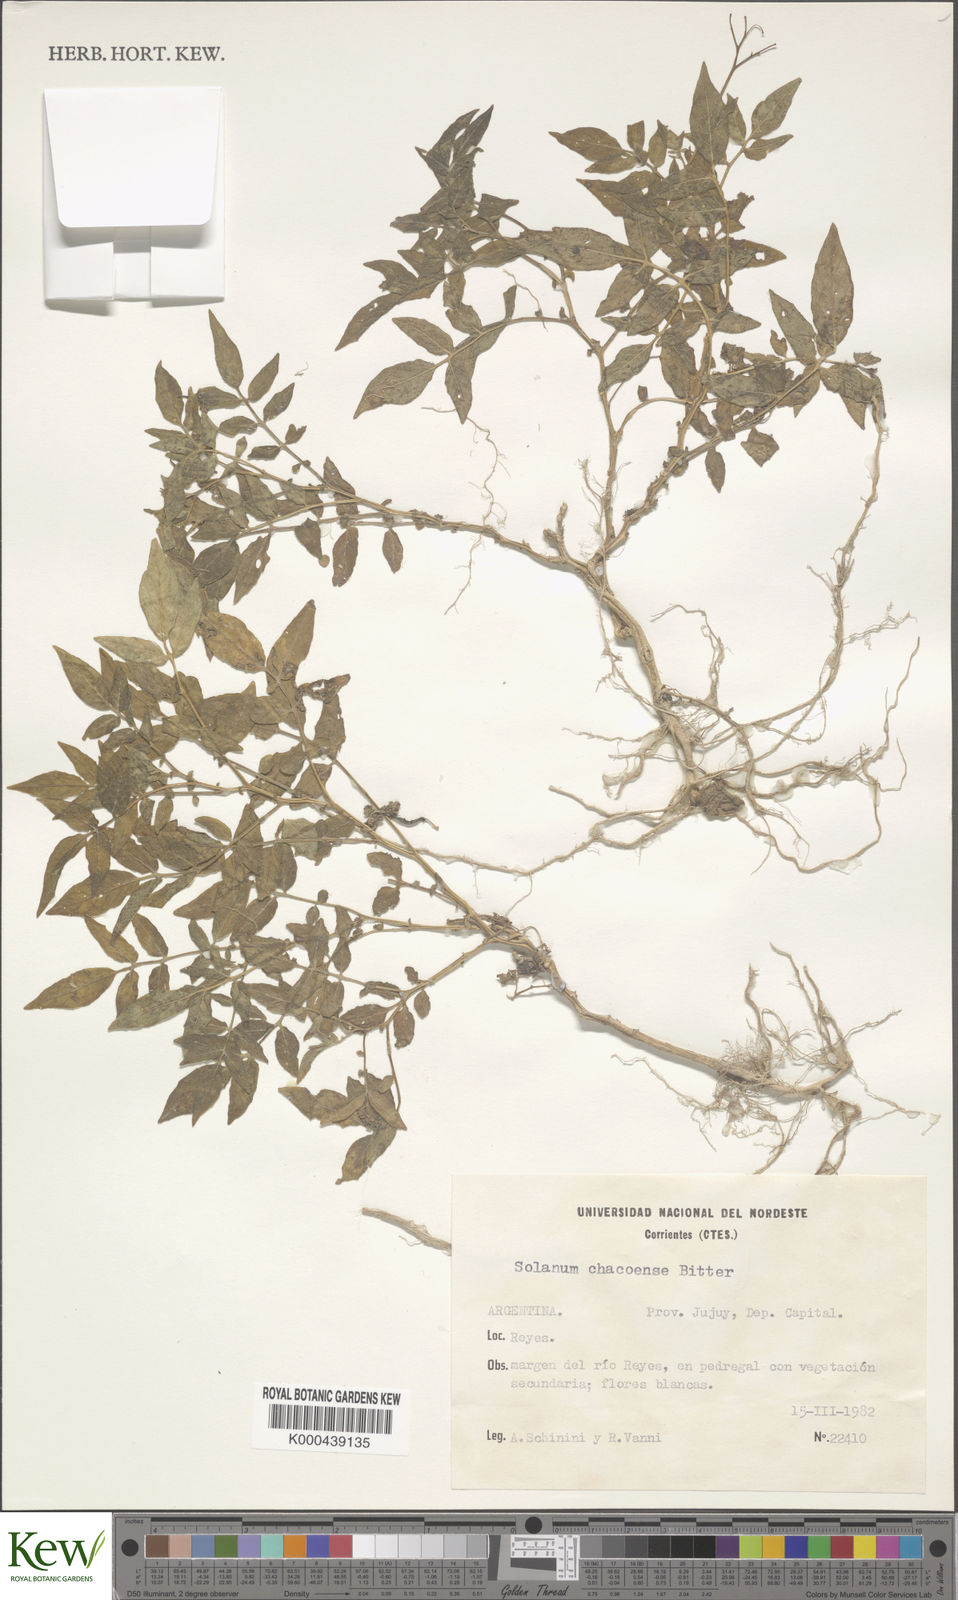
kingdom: Plantae
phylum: Tracheophyta
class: Magnoliopsida
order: Solanales
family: Solanaceae
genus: Solanum
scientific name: Solanum chacoense
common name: Chaco potato
